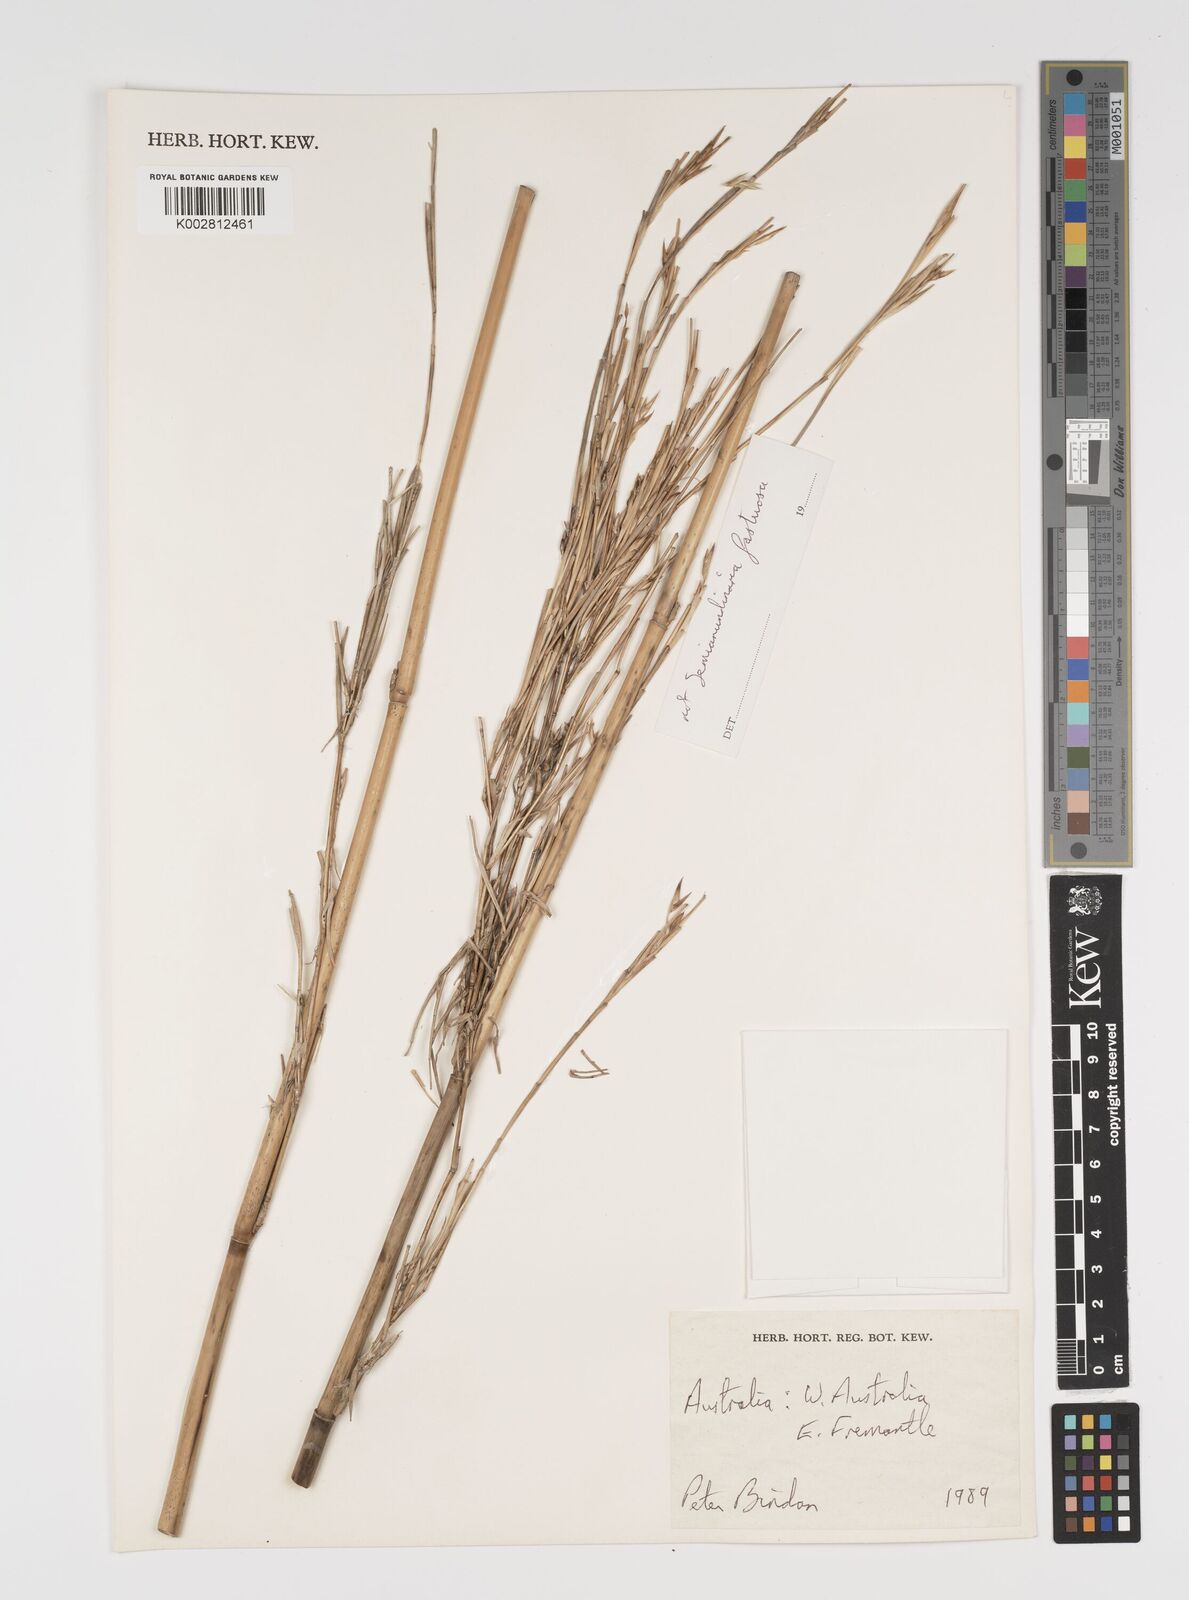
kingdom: Plantae
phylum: Tracheophyta
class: Liliopsida
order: Poales
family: Poaceae
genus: Yushania
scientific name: Yushania anceps
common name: Indian fountain-bamboo
